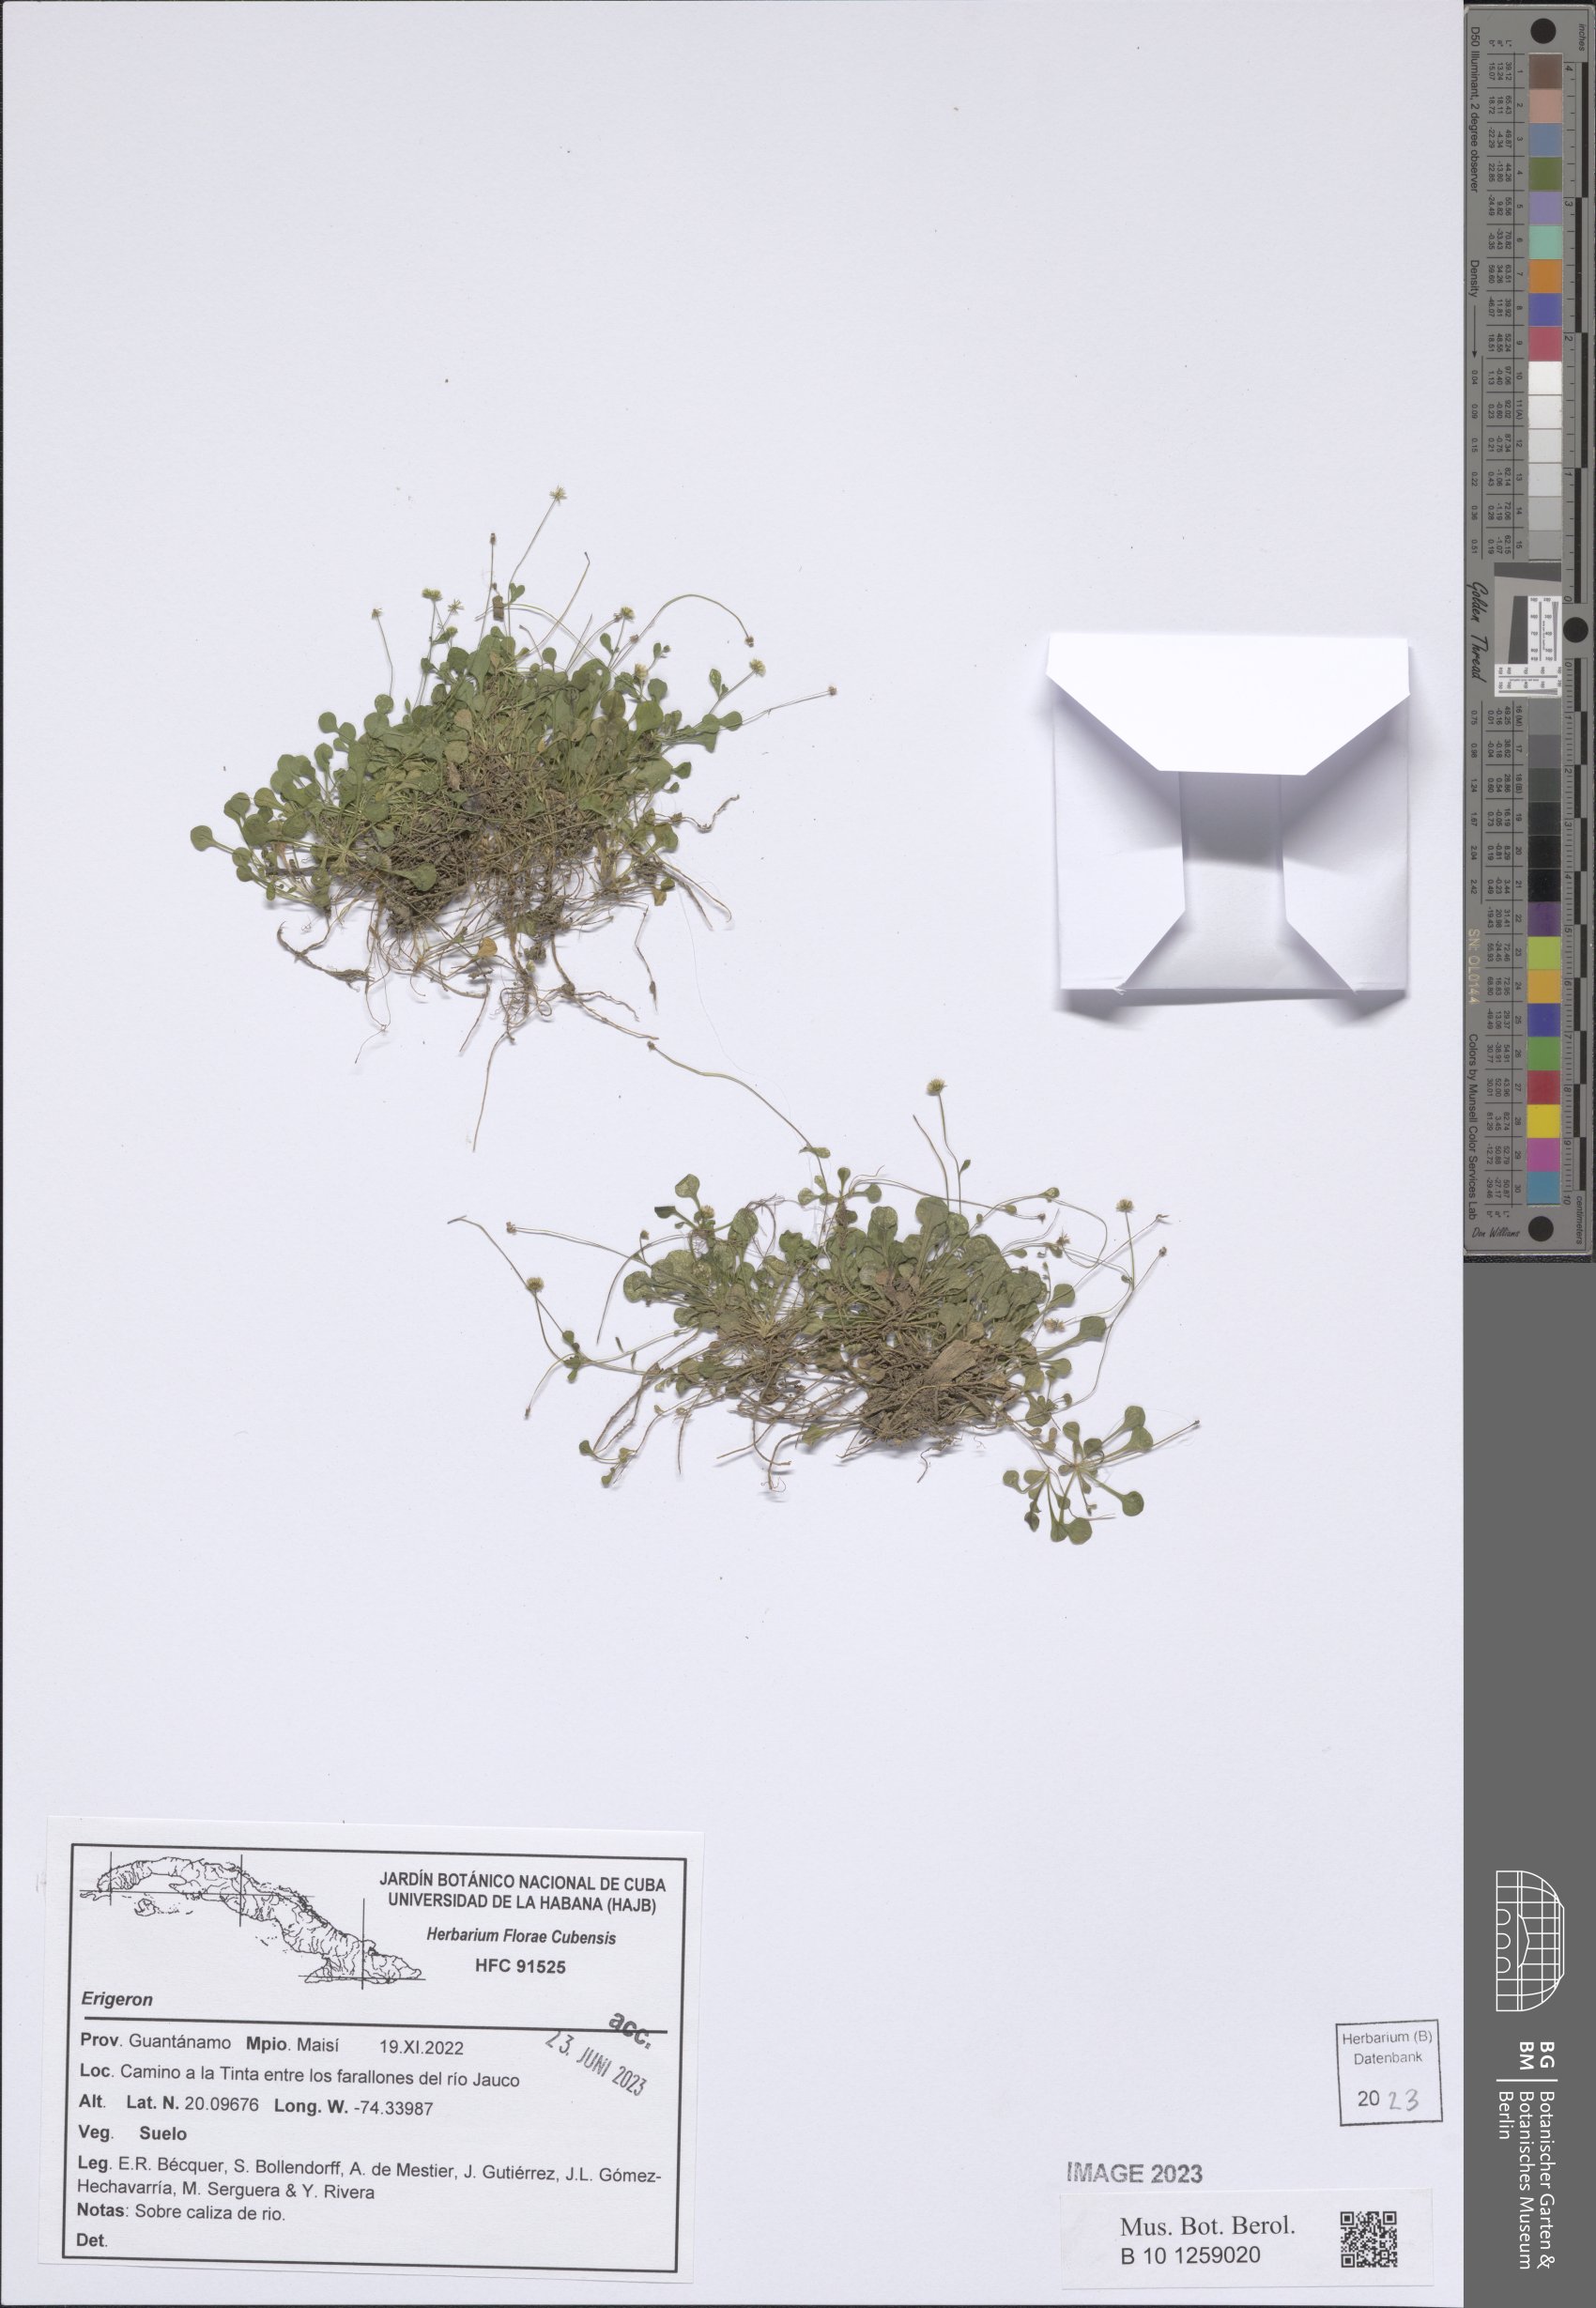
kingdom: Plantae
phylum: Tracheophyta
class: Magnoliopsida
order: Asterales
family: Asteraceae
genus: Erigeron
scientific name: Erigeron
